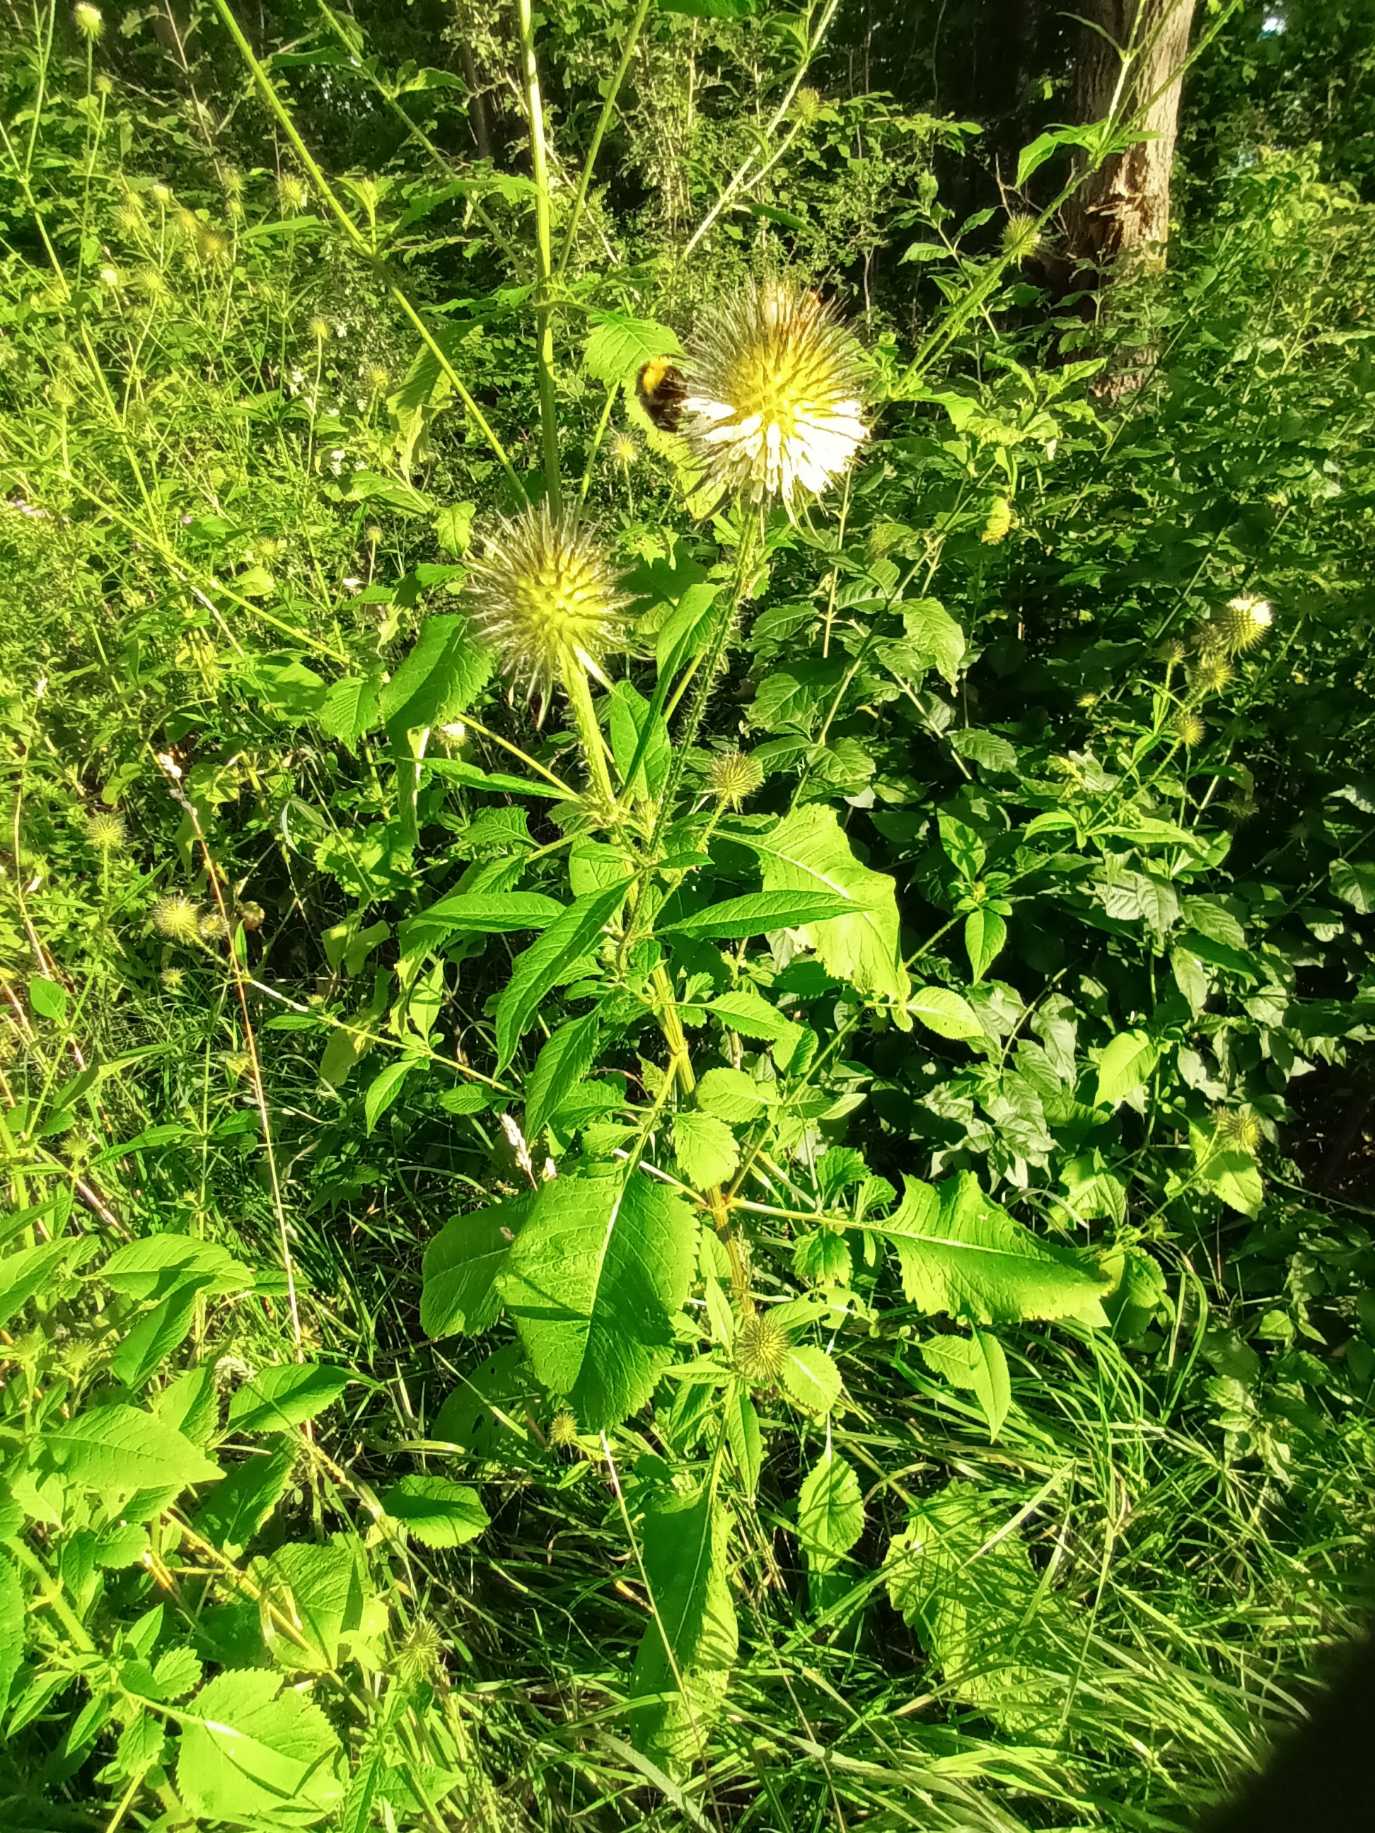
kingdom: Plantae
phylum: Tracheophyta
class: Magnoliopsida
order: Dipsacales
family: Caprifoliaceae
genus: Dipsacus
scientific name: Dipsacus strigosus
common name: Pindsvin-kartebolle
